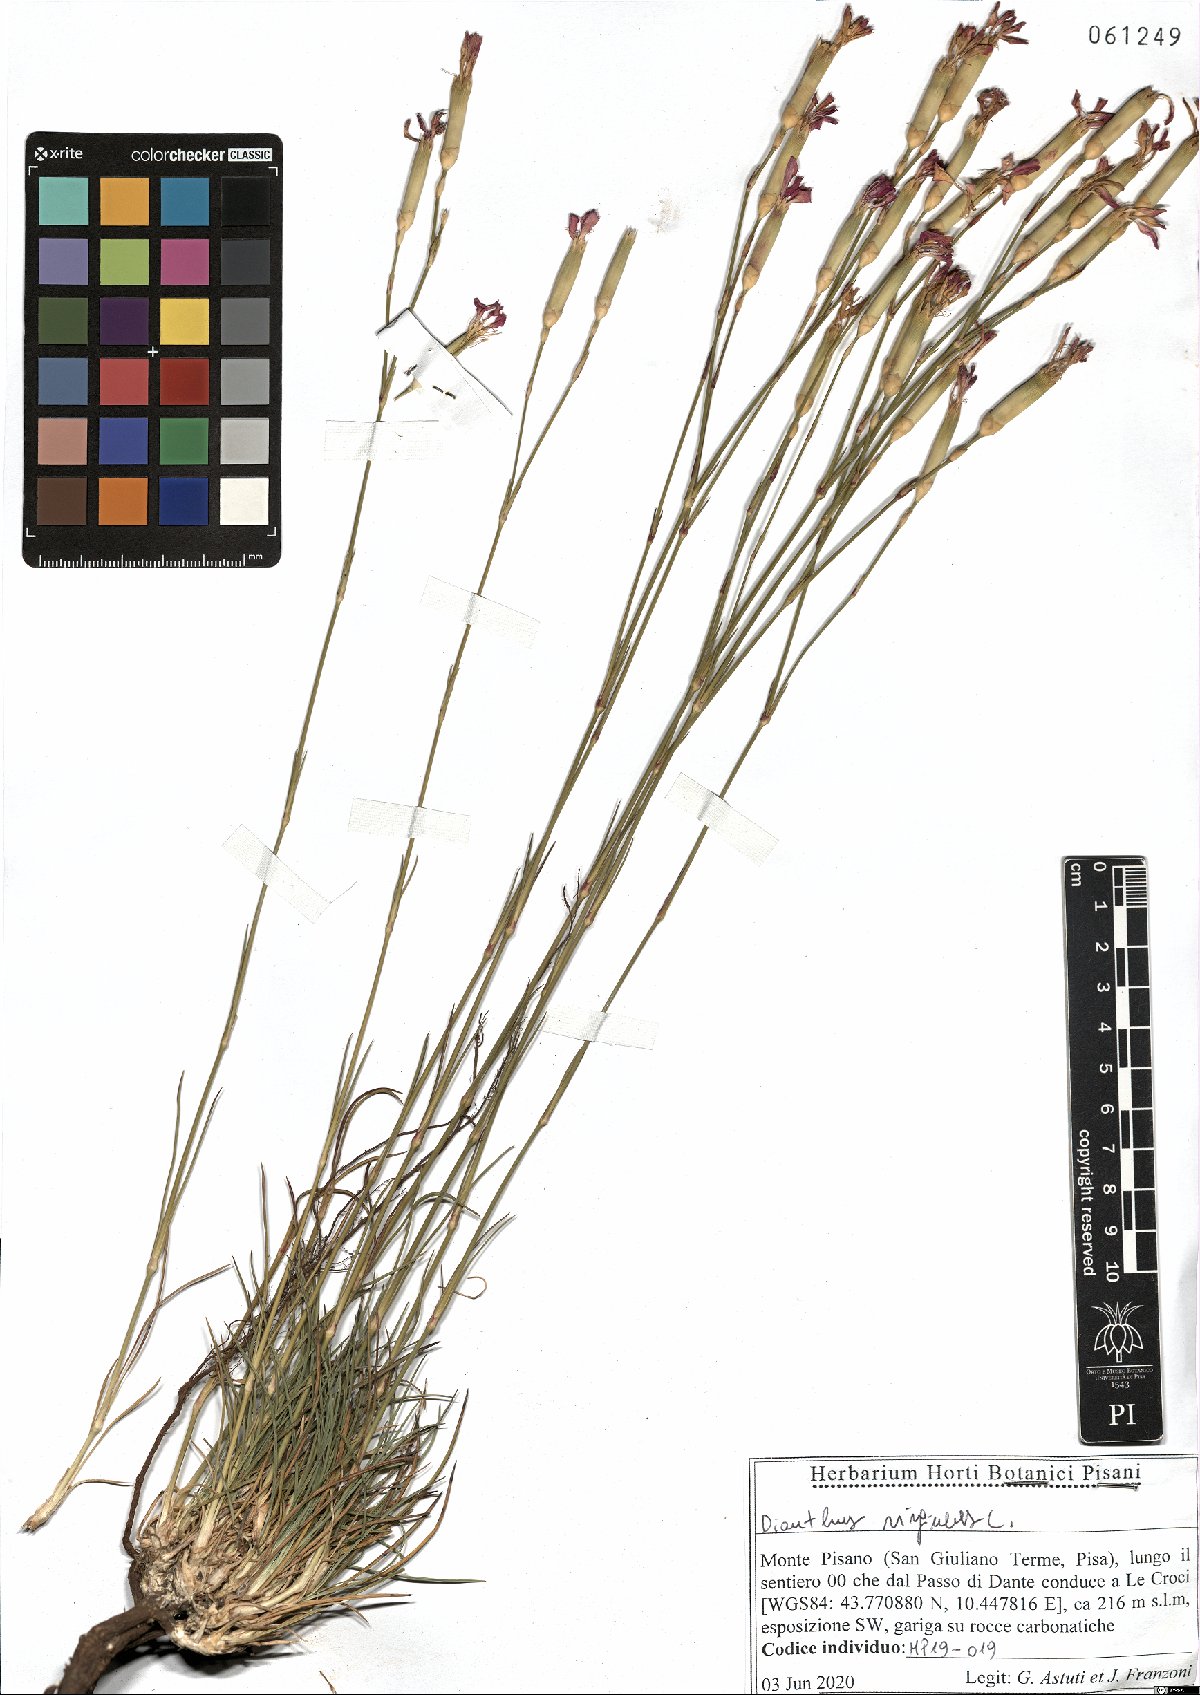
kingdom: Plantae
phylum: Tracheophyta
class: Magnoliopsida
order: Caryophyllales
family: Caryophyllaceae
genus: Dianthus
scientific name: Dianthus virgineus
